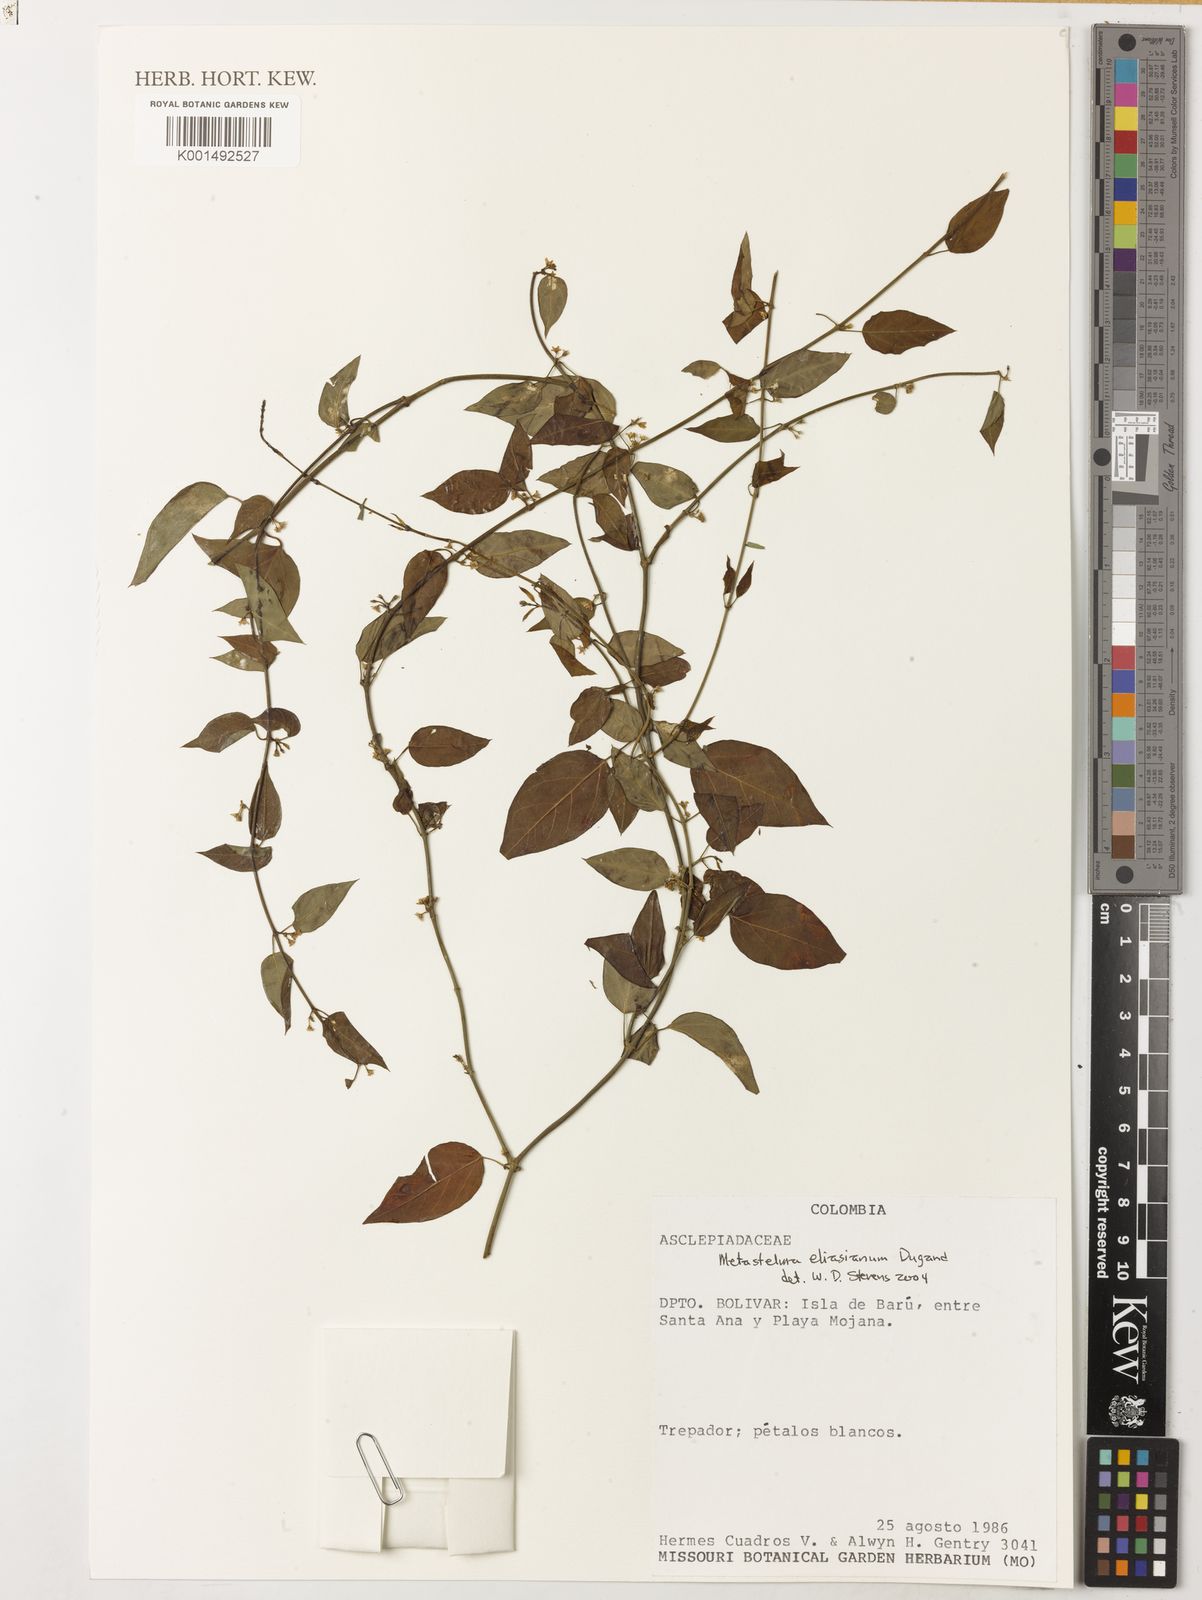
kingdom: Plantae
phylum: Tracheophyta
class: Magnoliopsida
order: Gentianales
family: Apocynaceae
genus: Metastelma
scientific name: Metastelma eliasianum
